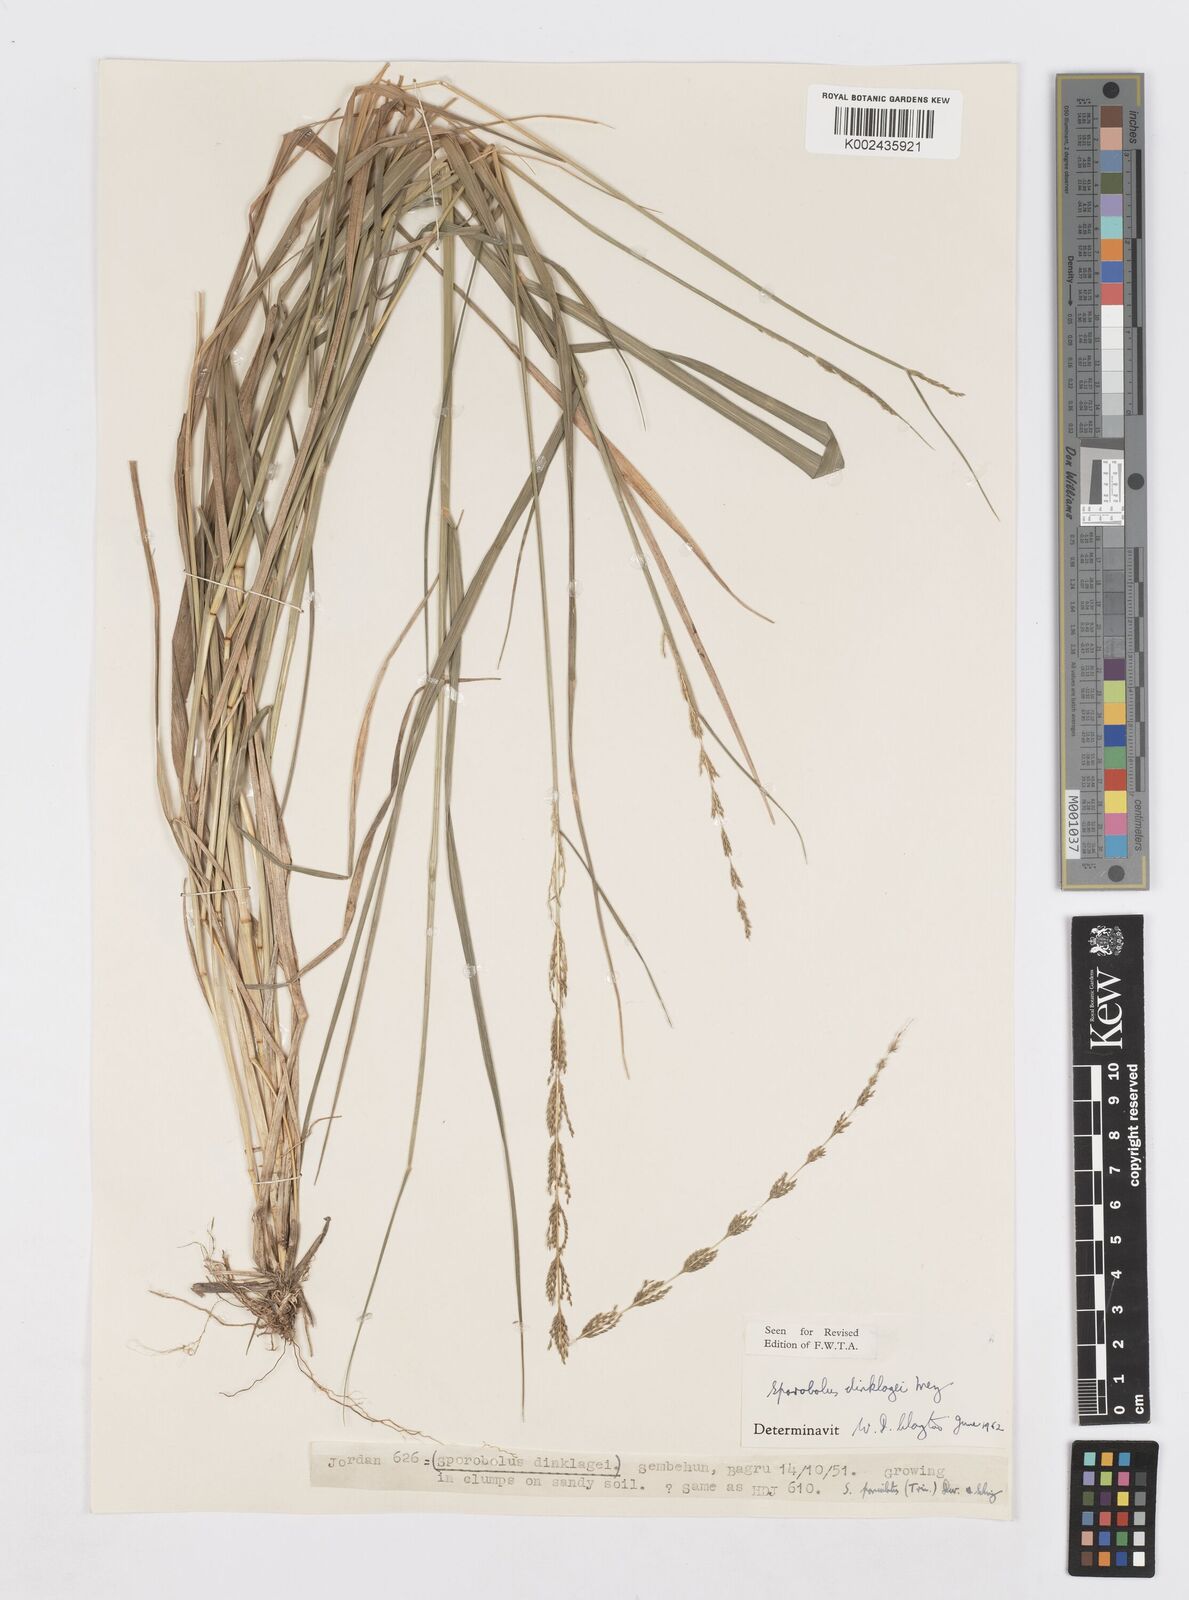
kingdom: Plantae
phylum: Tracheophyta
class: Liliopsida
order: Poales
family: Poaceae
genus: Sporobolus
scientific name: Sporobolus dinklagei
